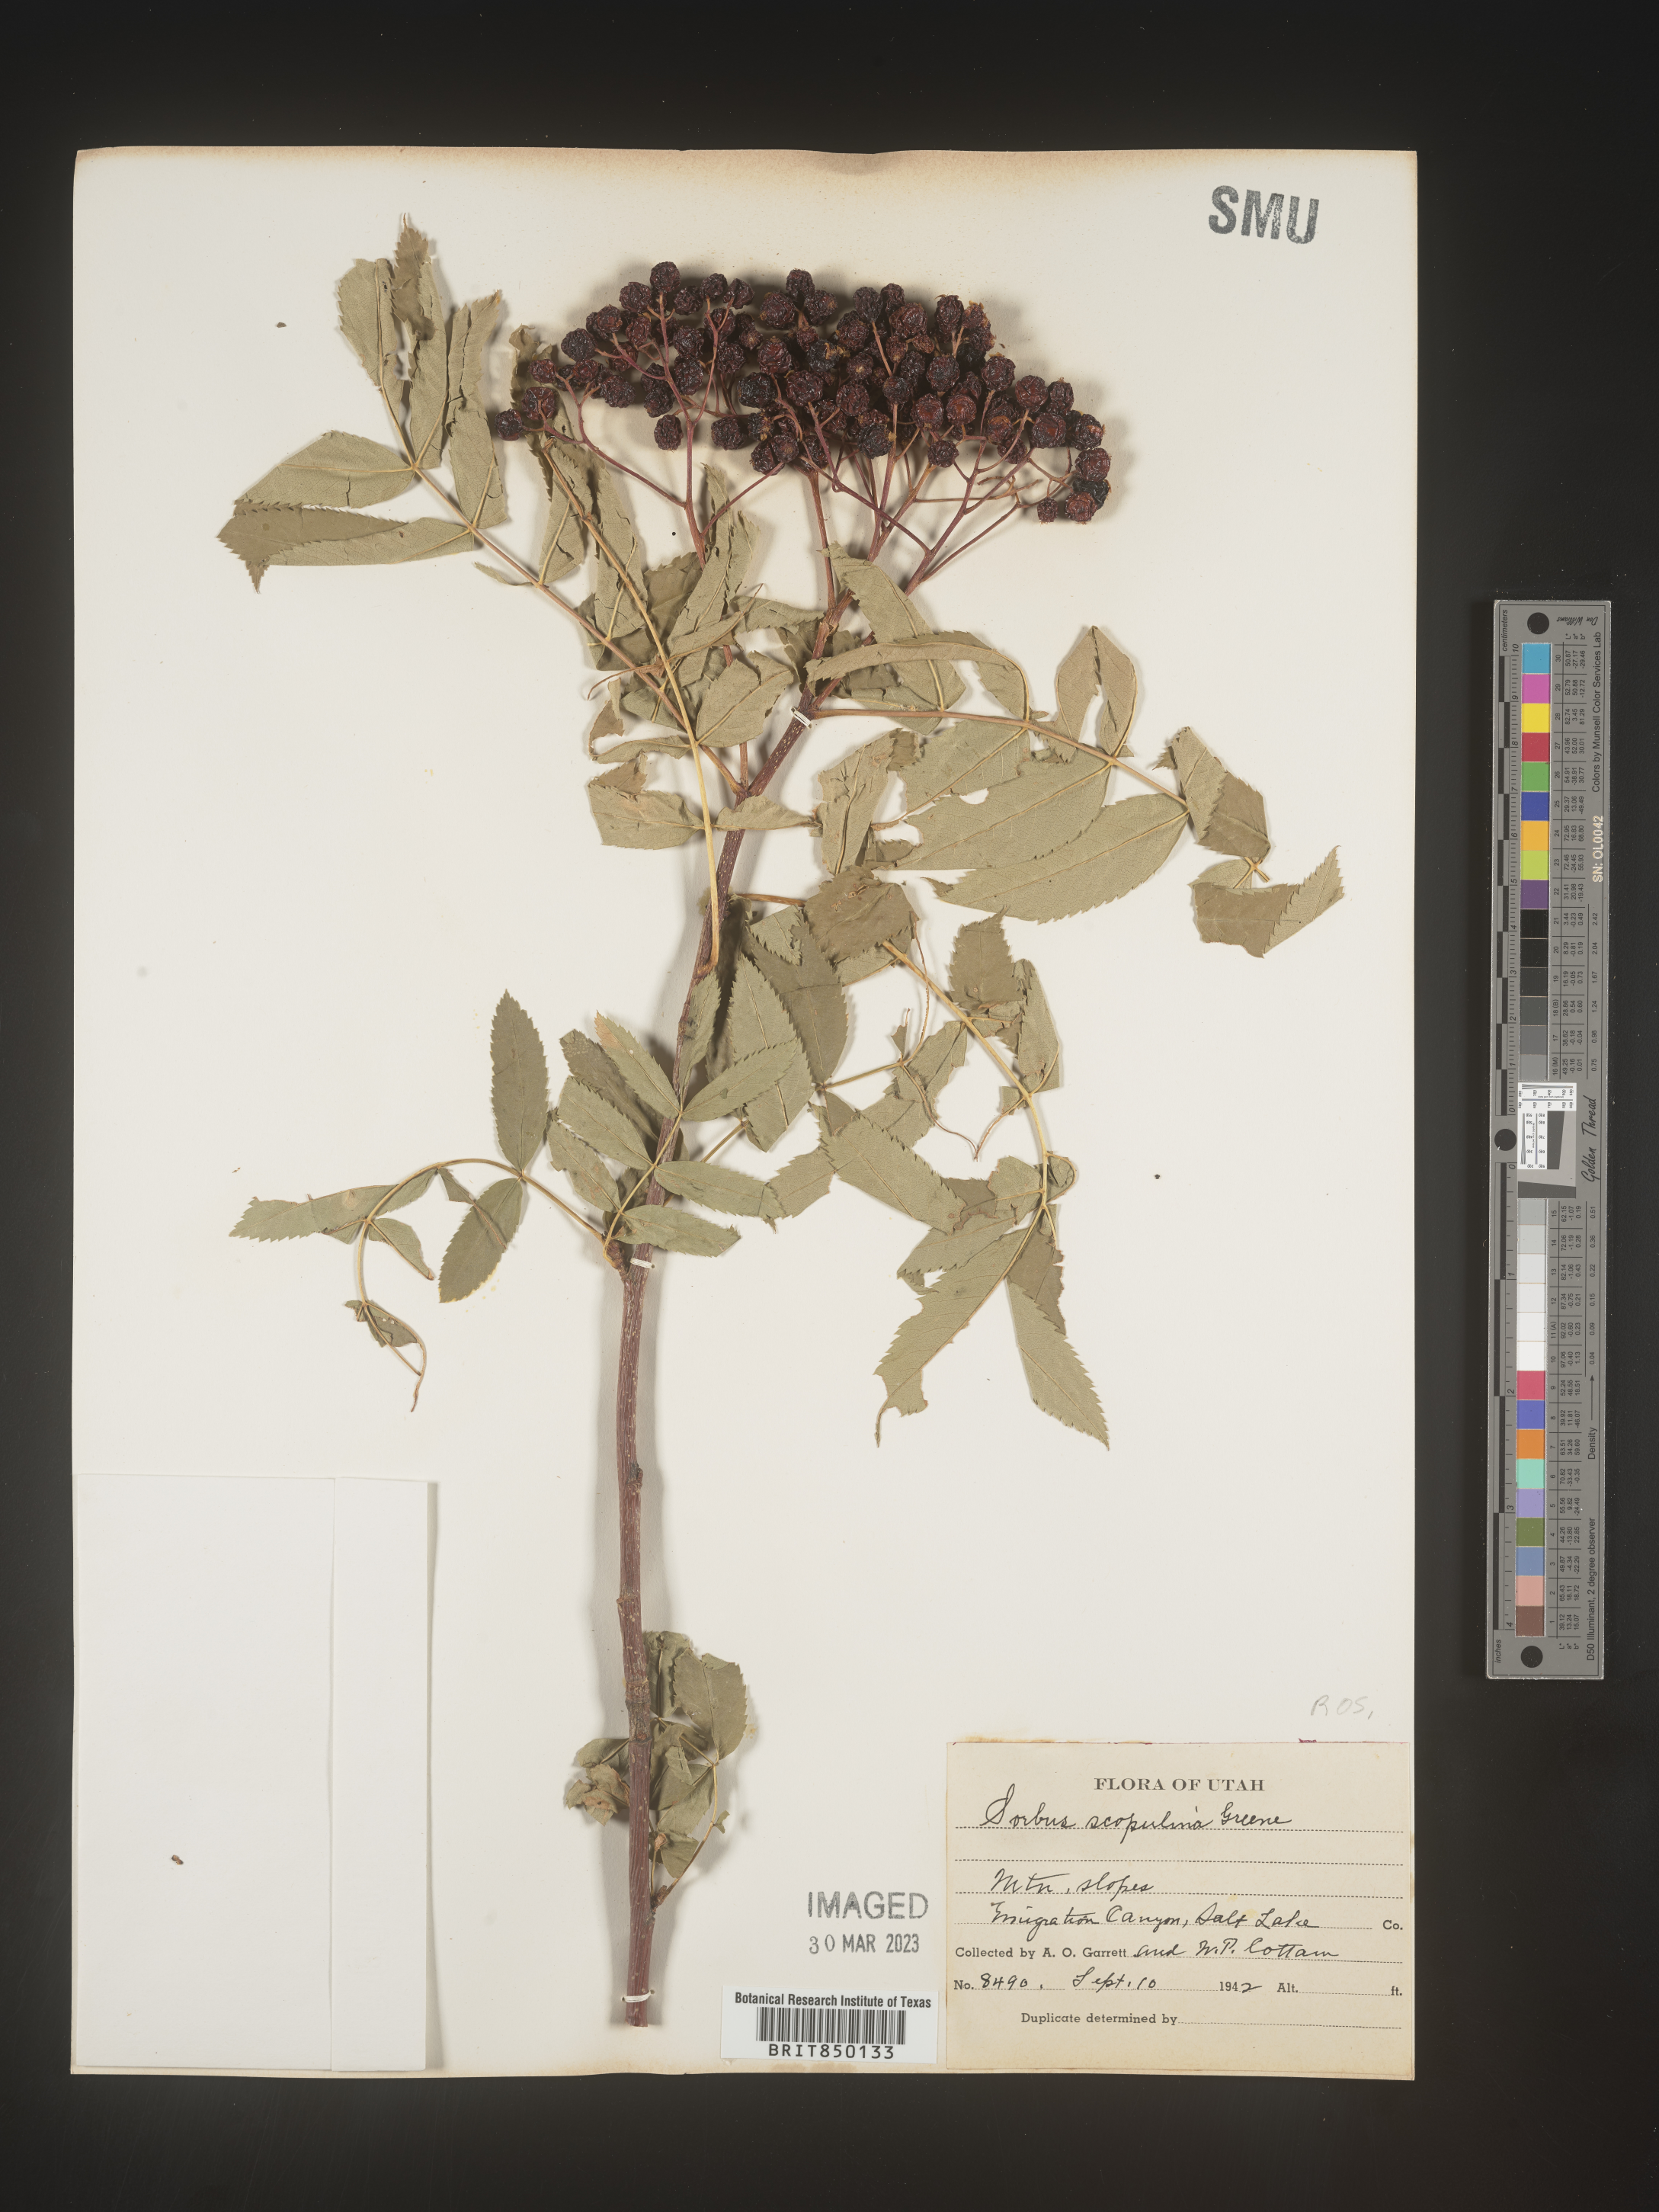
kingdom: Plantae
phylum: Tracheophyta
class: Magnoliopsida
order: Rosales
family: Rosaceae
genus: Sorbus
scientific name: Sorbus scopulina
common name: Greene's mountain-ash
